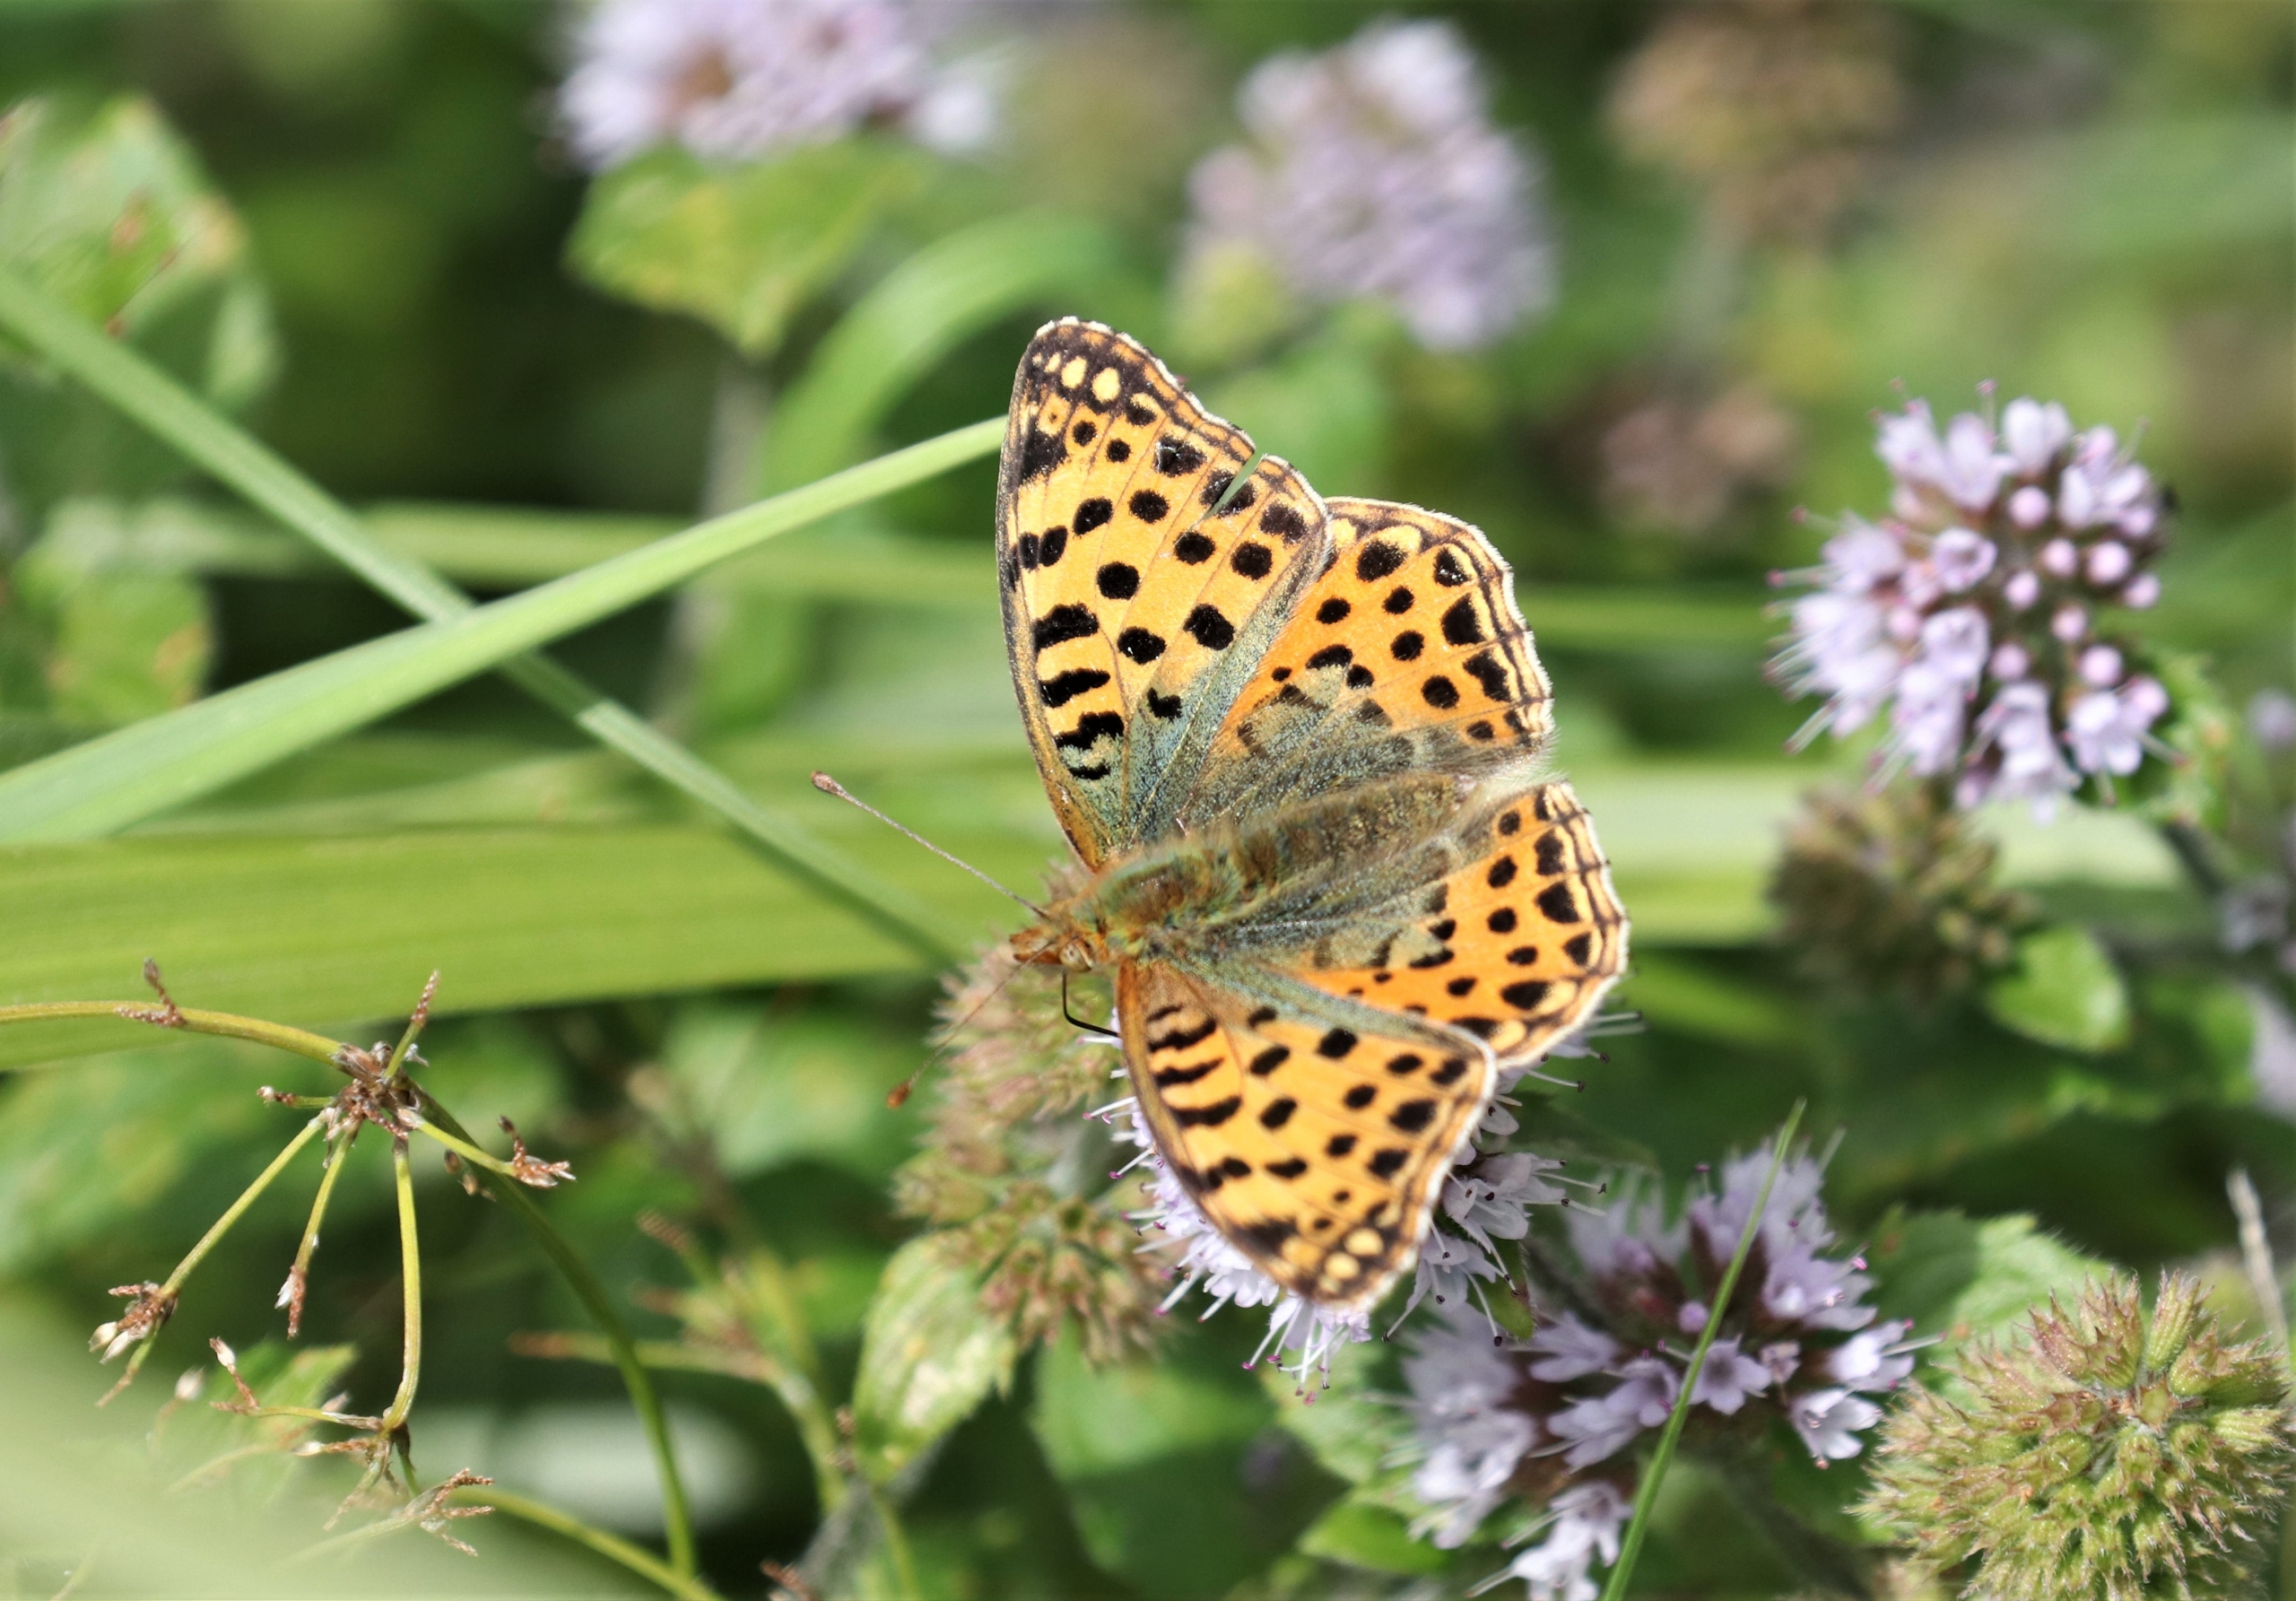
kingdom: Animalia
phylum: Arthropoda
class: Insecta
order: Lepidoptera
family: Nymphalidae
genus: Issoria
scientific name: Issoria lathonia
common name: Storplettet perlemorsommerfugl
